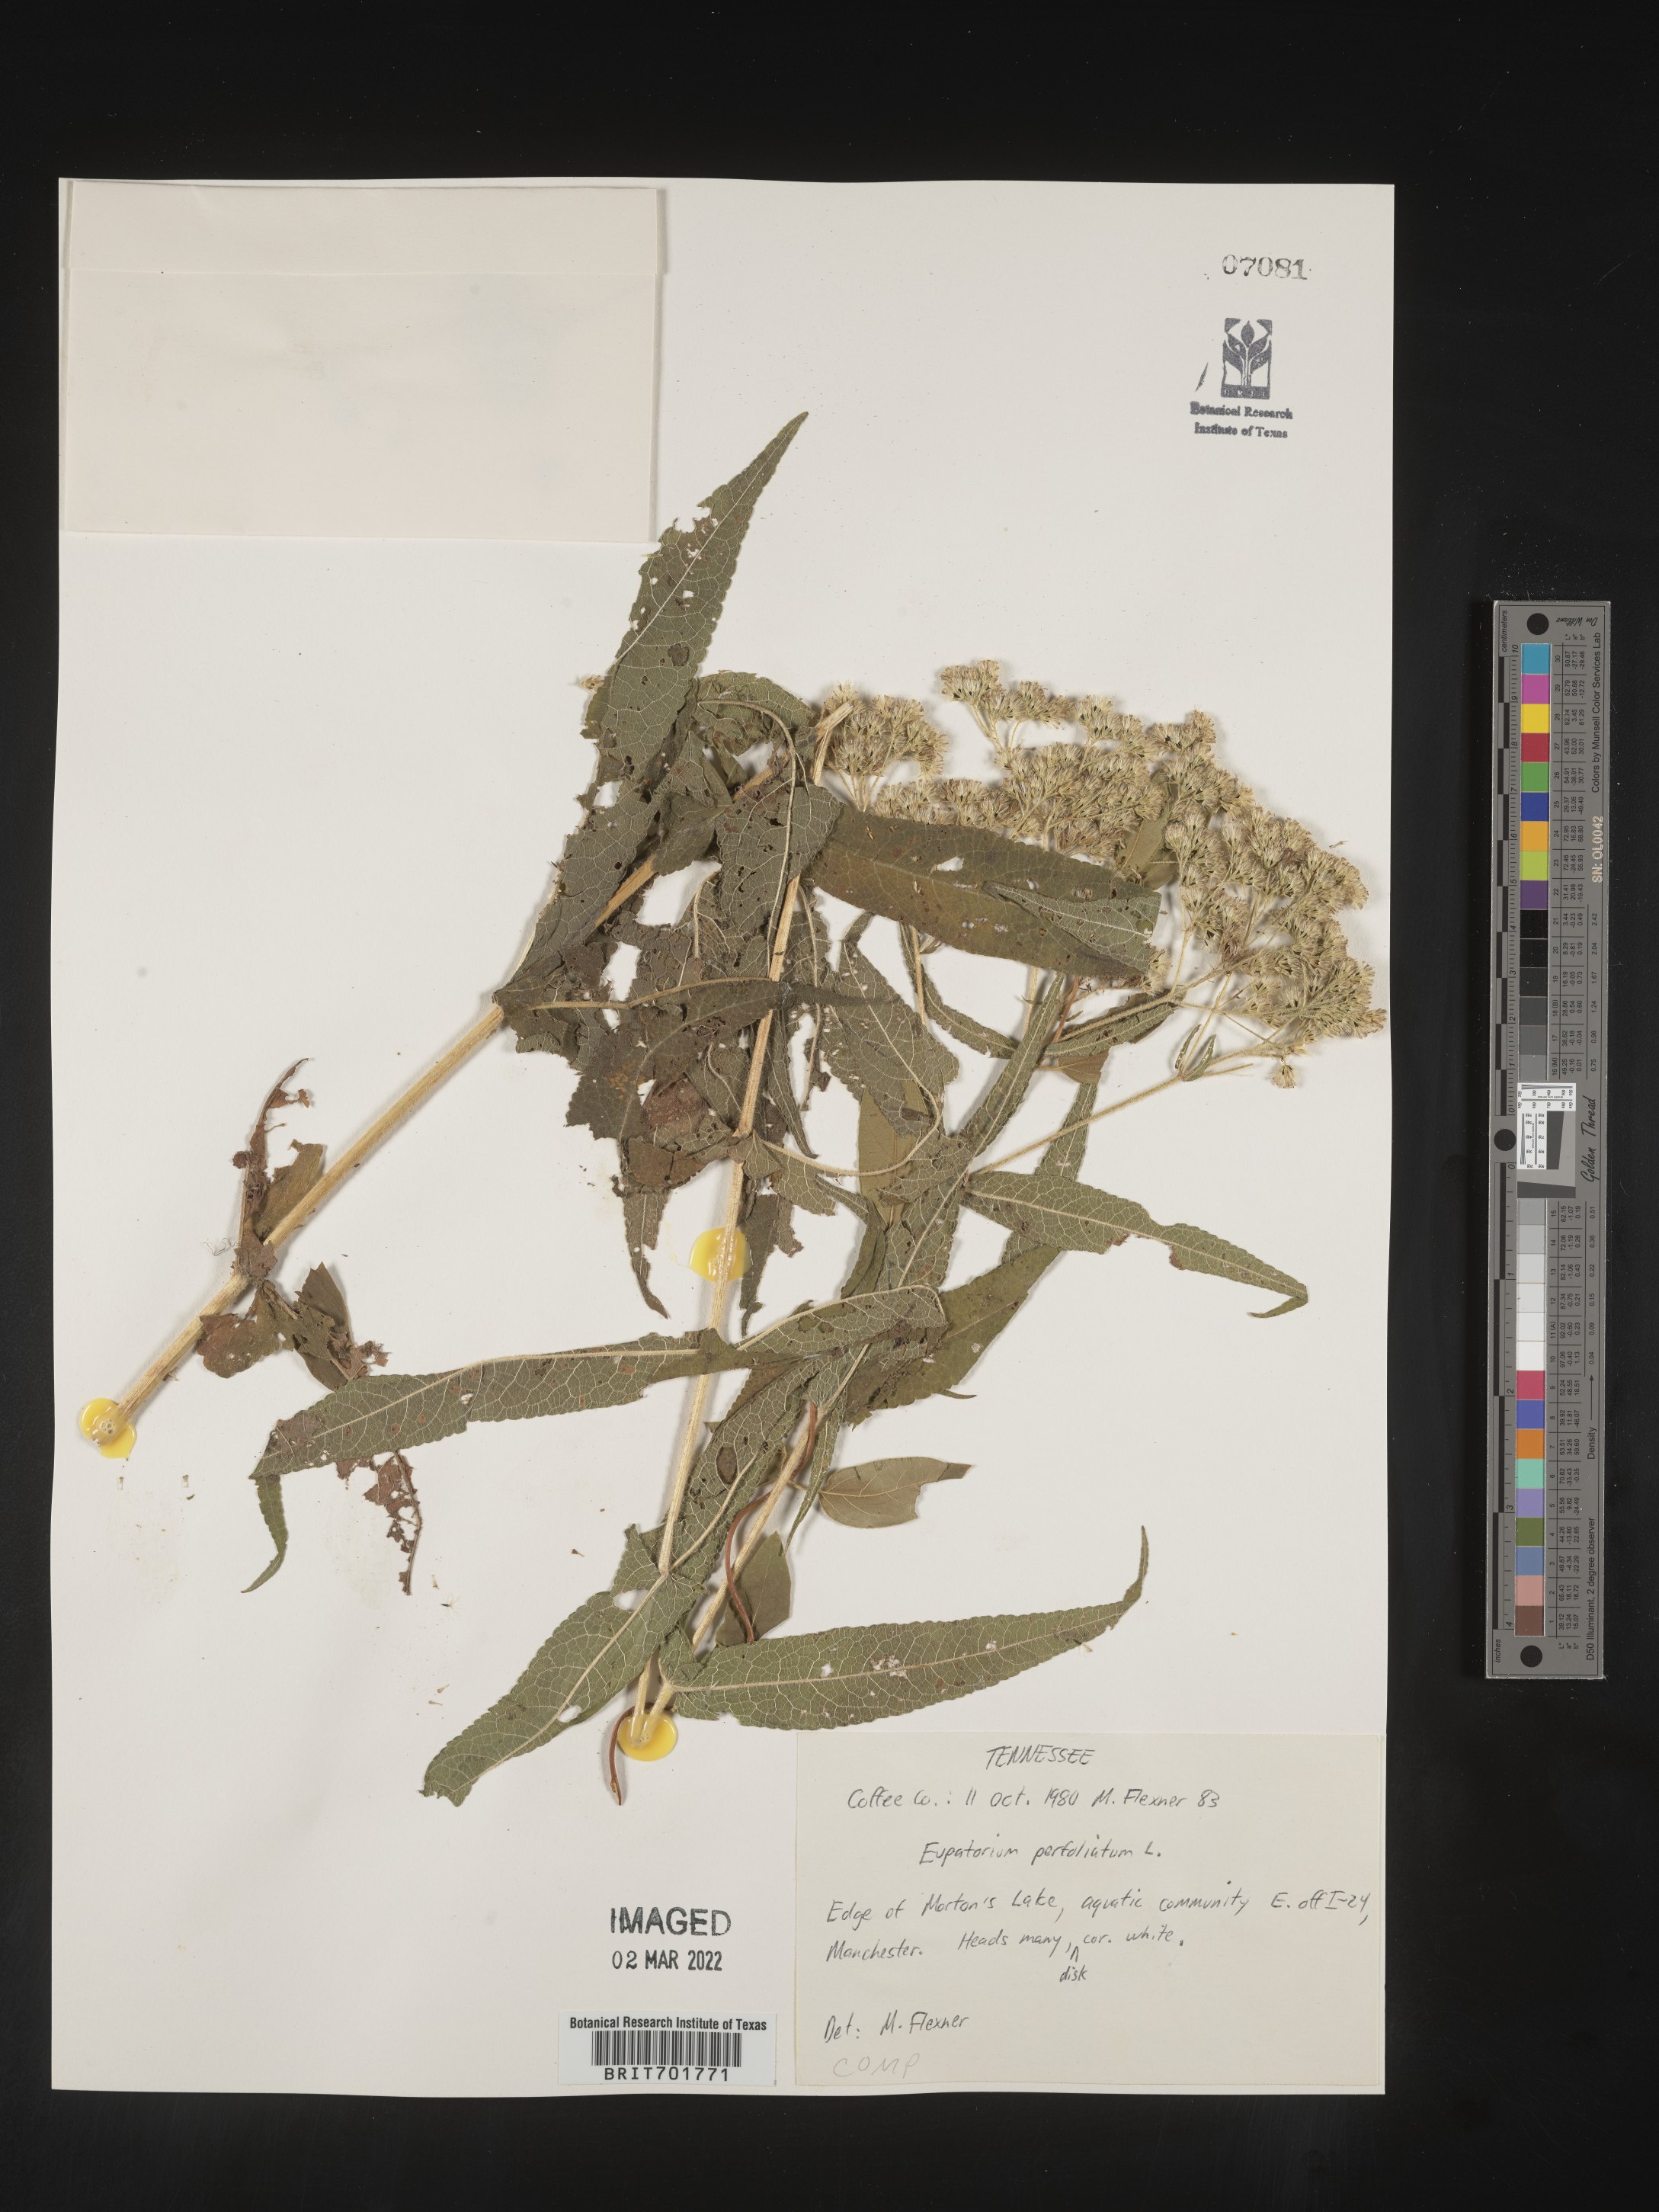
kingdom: Plantae
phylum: Tracheophyta
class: Magnoliopsida
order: Asterales
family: Asteraceae
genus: Eupatorium
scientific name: Eupatorium perfoliatum
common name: Boneset
